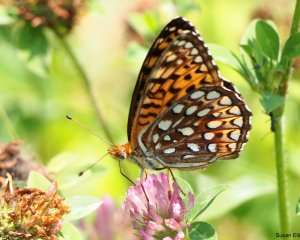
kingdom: Animalia
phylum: Arthropoda
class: Insecta
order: Lepidoptera
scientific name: Lepidoptera
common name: Butterflies
